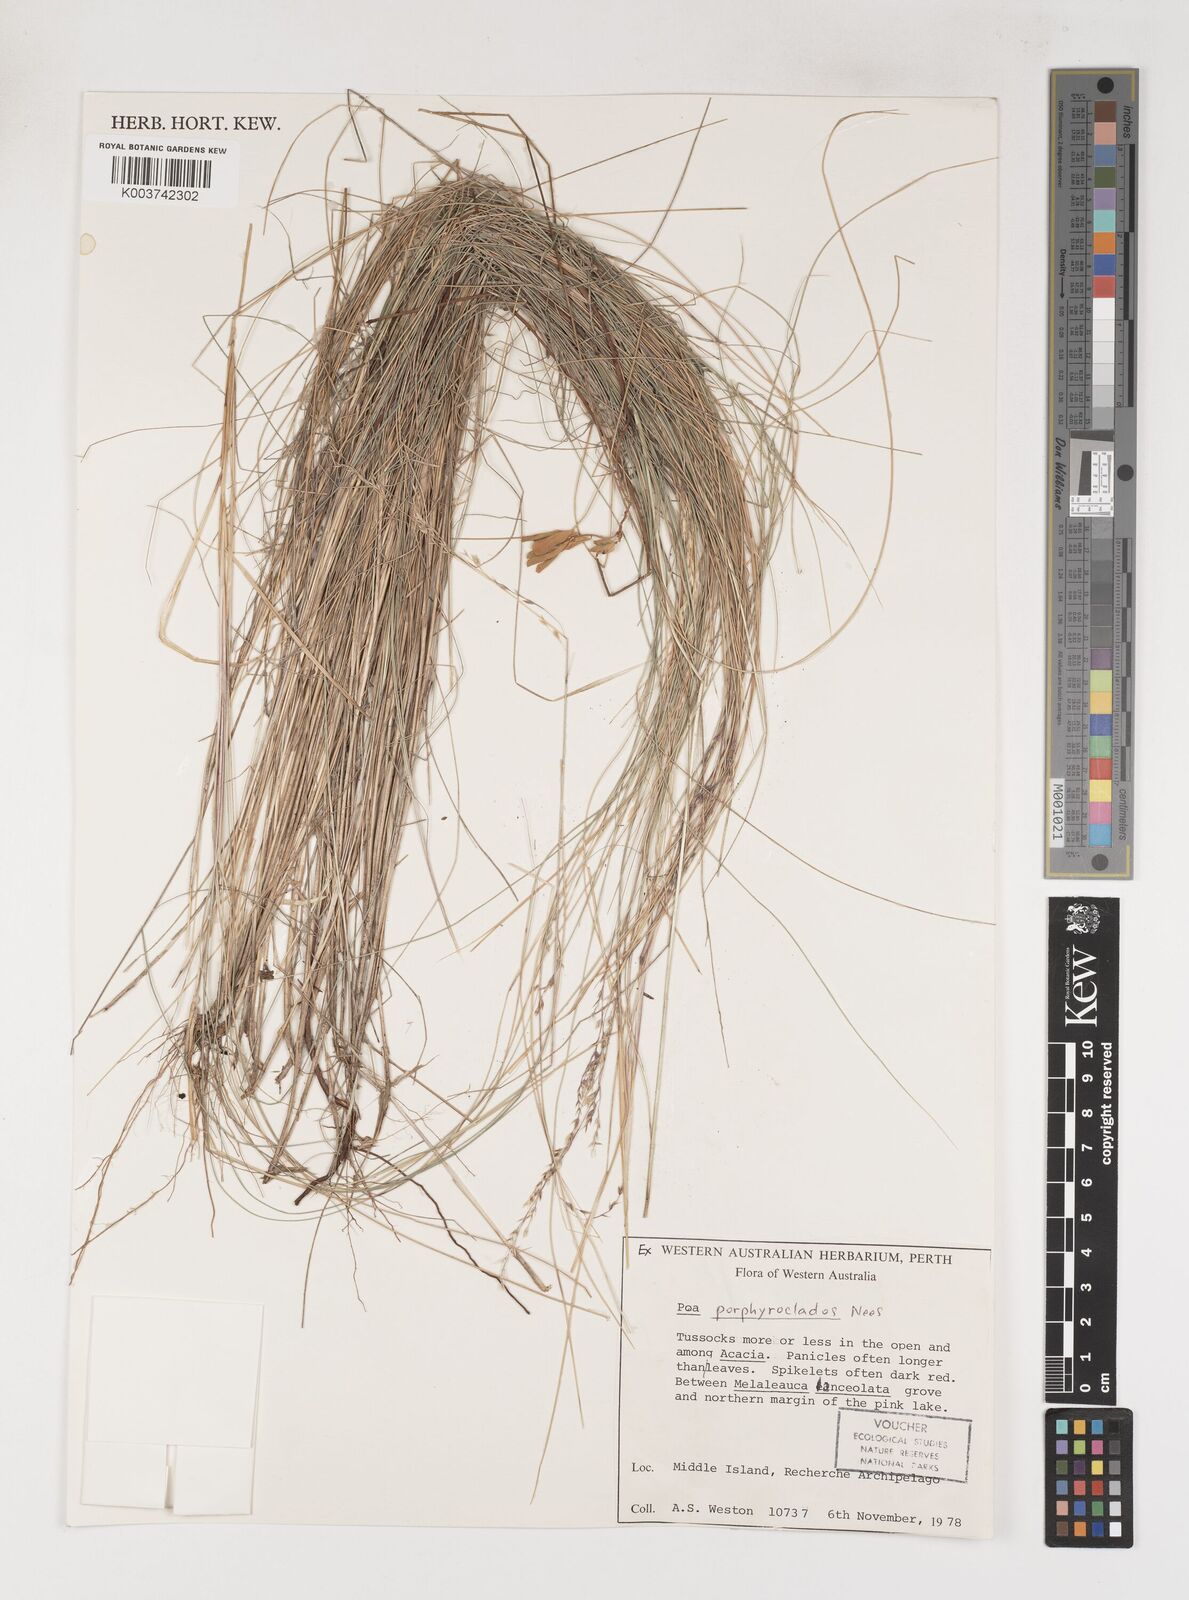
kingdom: Plantae
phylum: Tracheophyta
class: Liliopsida
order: Poales
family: Poaceae
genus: Poa
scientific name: Poa porphyroclados
